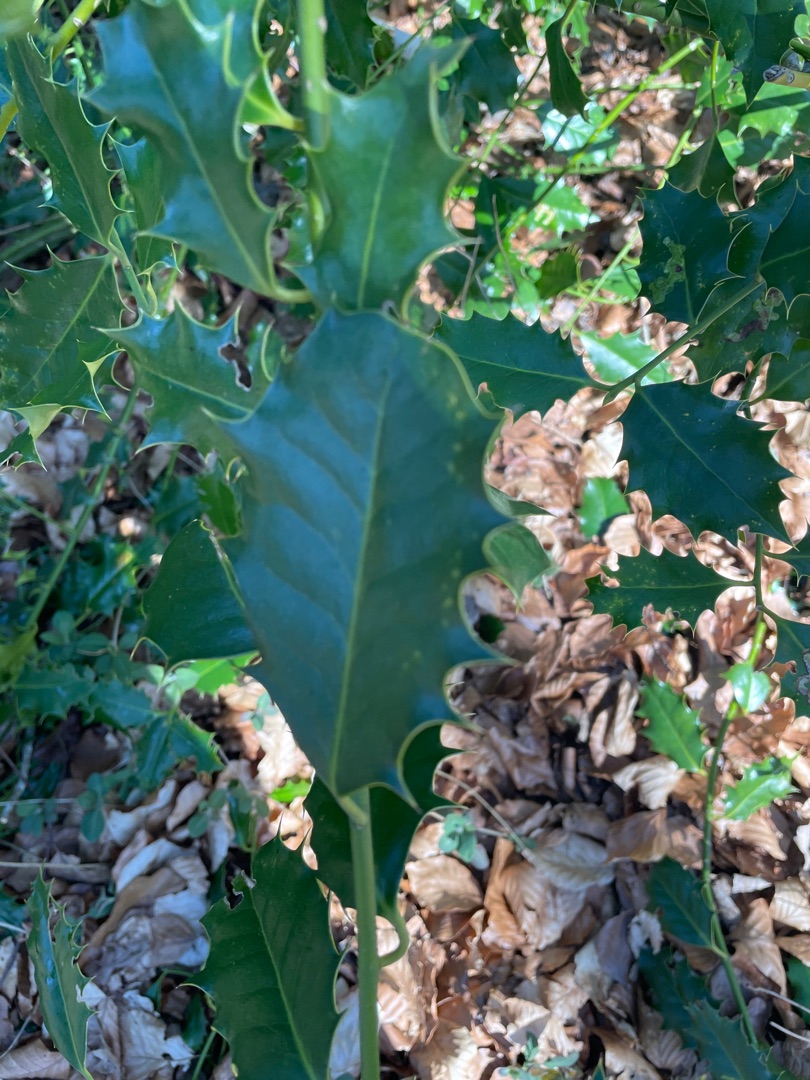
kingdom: Plantae
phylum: Tracheophyta
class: Magnoliopsida
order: Aquifoliales
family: Aquifoliaceae
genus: Ilex
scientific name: Ilex aquifolium
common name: Kristtorn
